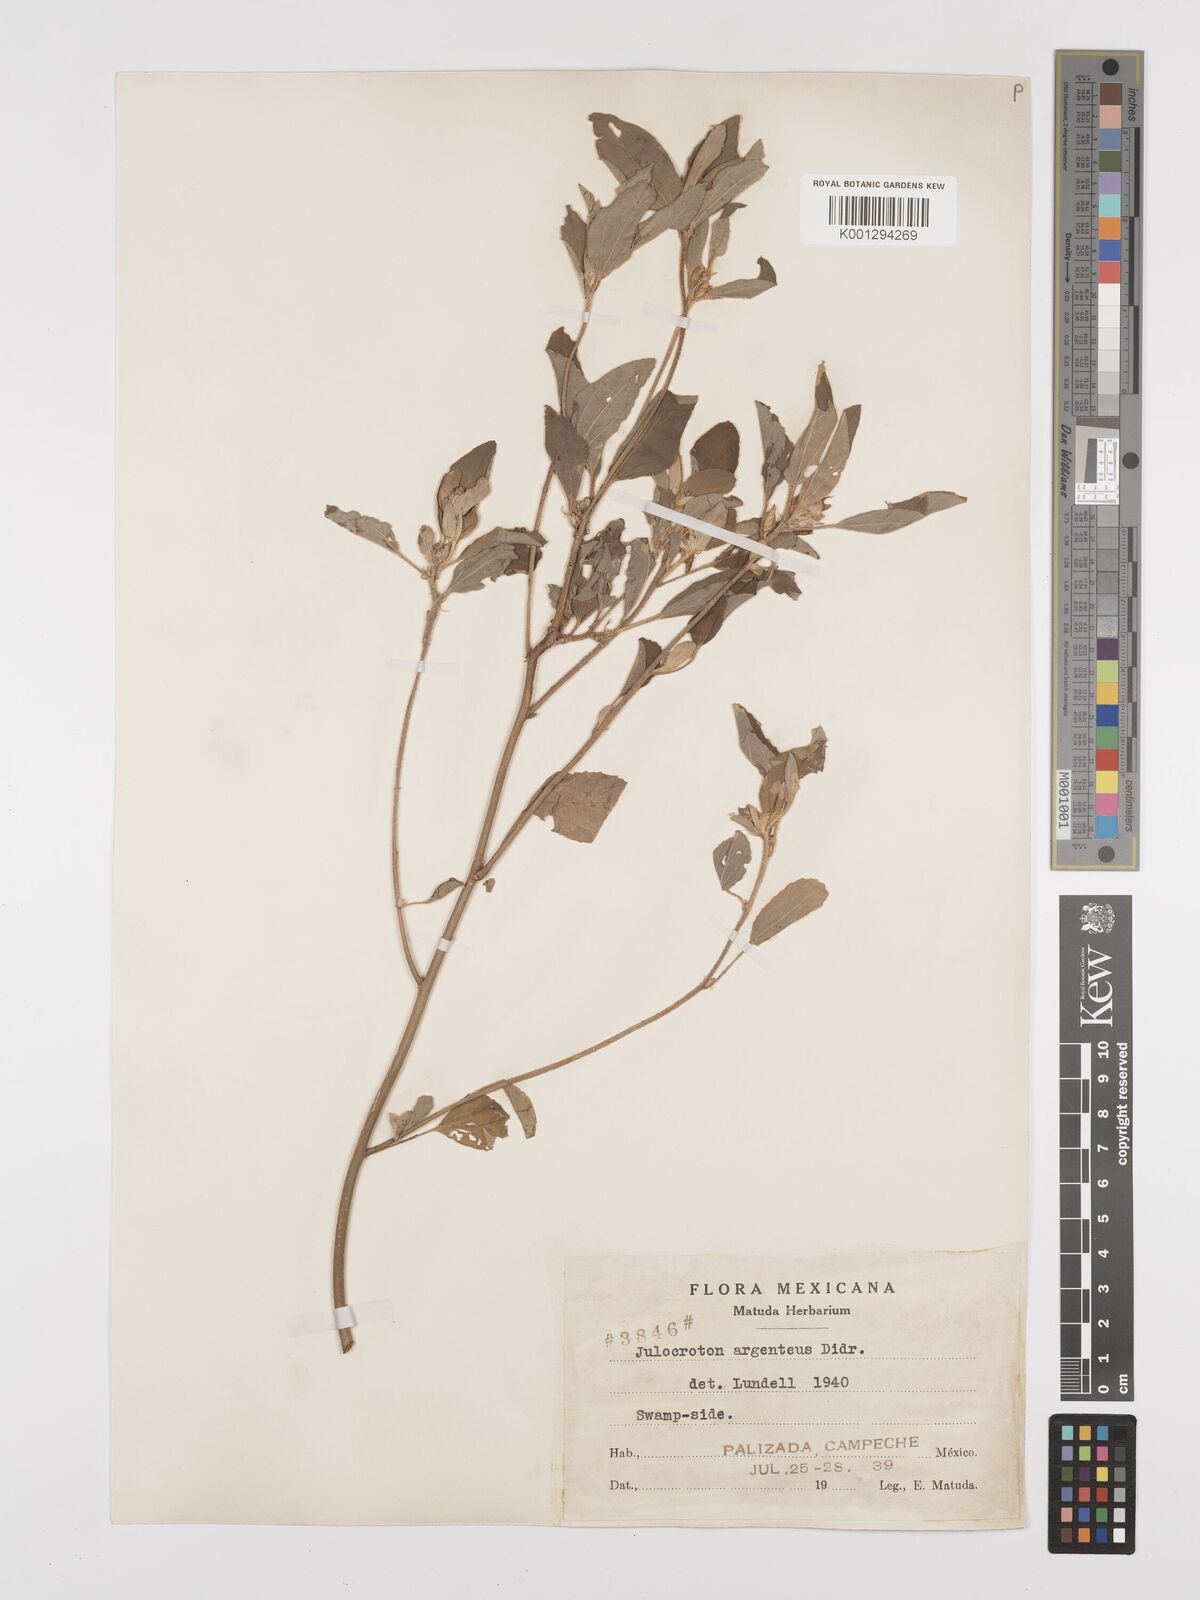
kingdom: Plantae
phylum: Tracheophyta
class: Magnoliopsida
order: Malpighiales
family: Euphorbiaceae
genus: Croton
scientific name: Croton argenteus
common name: Silver july croton
